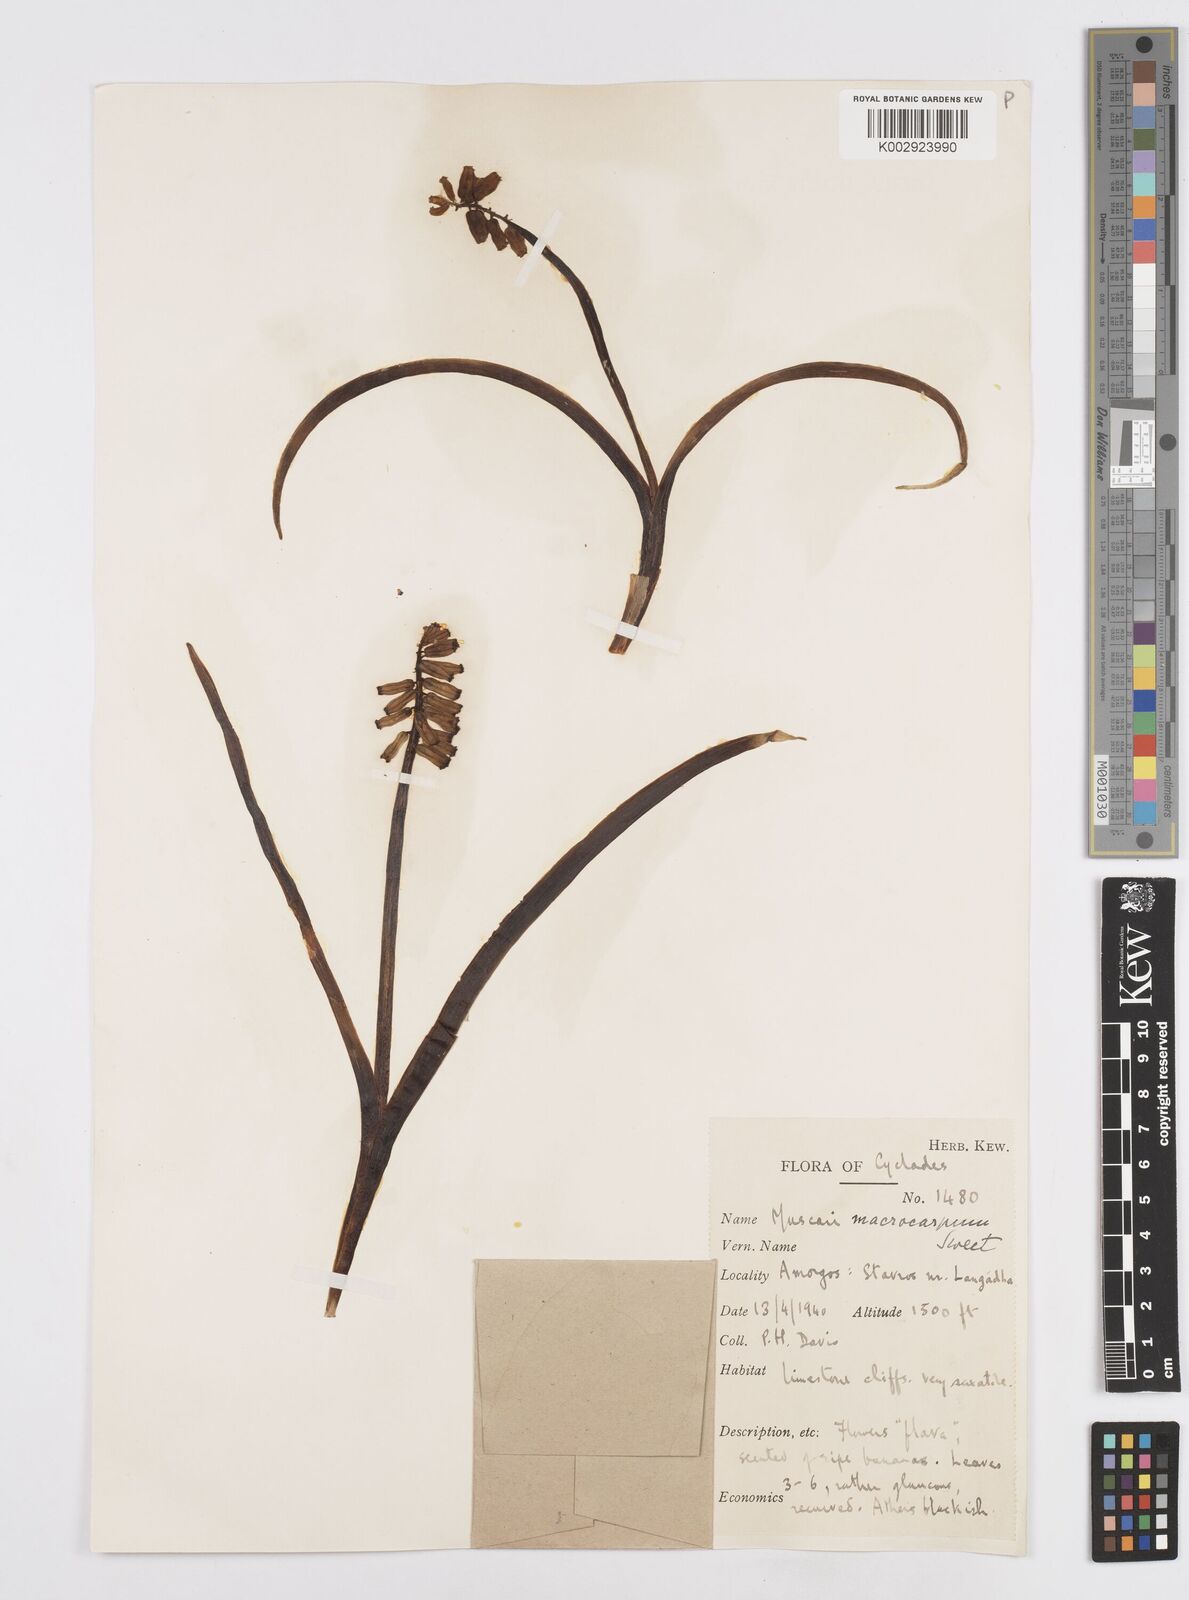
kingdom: Plantae
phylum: Tracheophyta
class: Liliopsida
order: Asparagales
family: Asparagaceae
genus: Muscarimia
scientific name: Muscarimia macrocarpa
